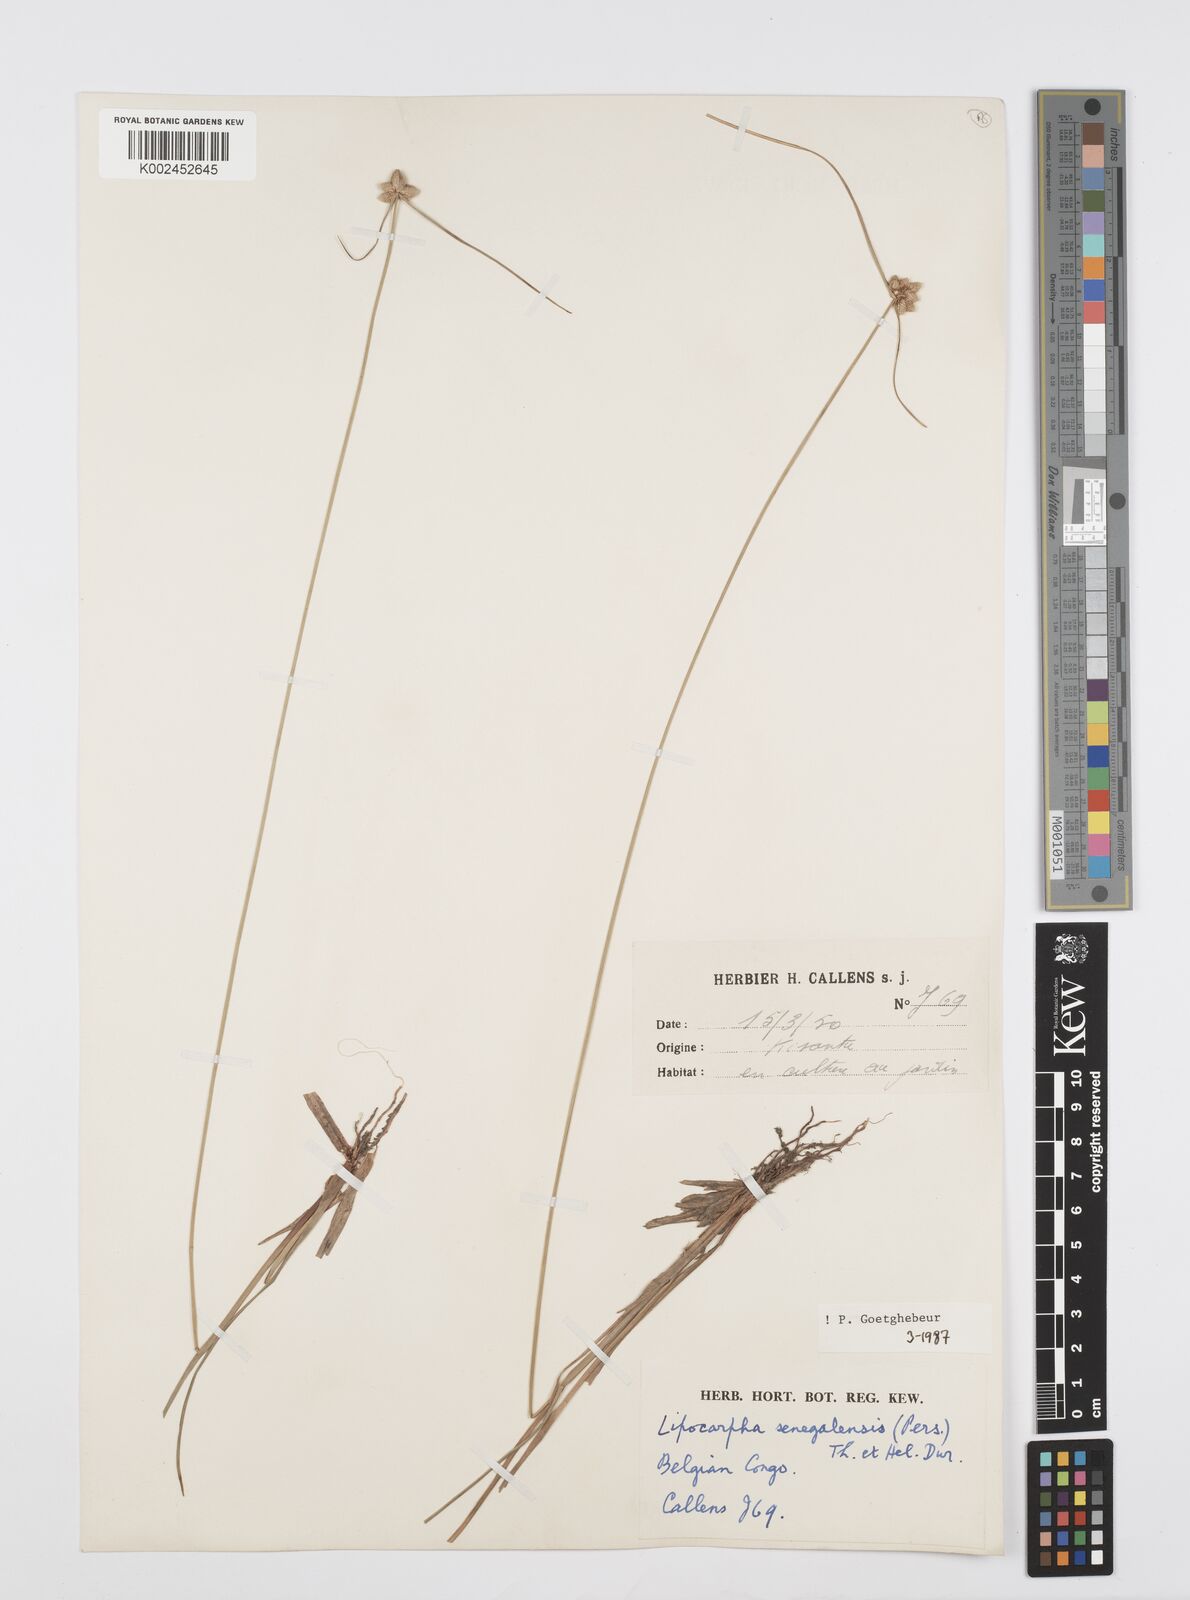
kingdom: Plantae
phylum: Tracheophyta
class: Liliopsida
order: Poales
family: Cyperaceae
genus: Cyperus
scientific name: Cyperus albescens
